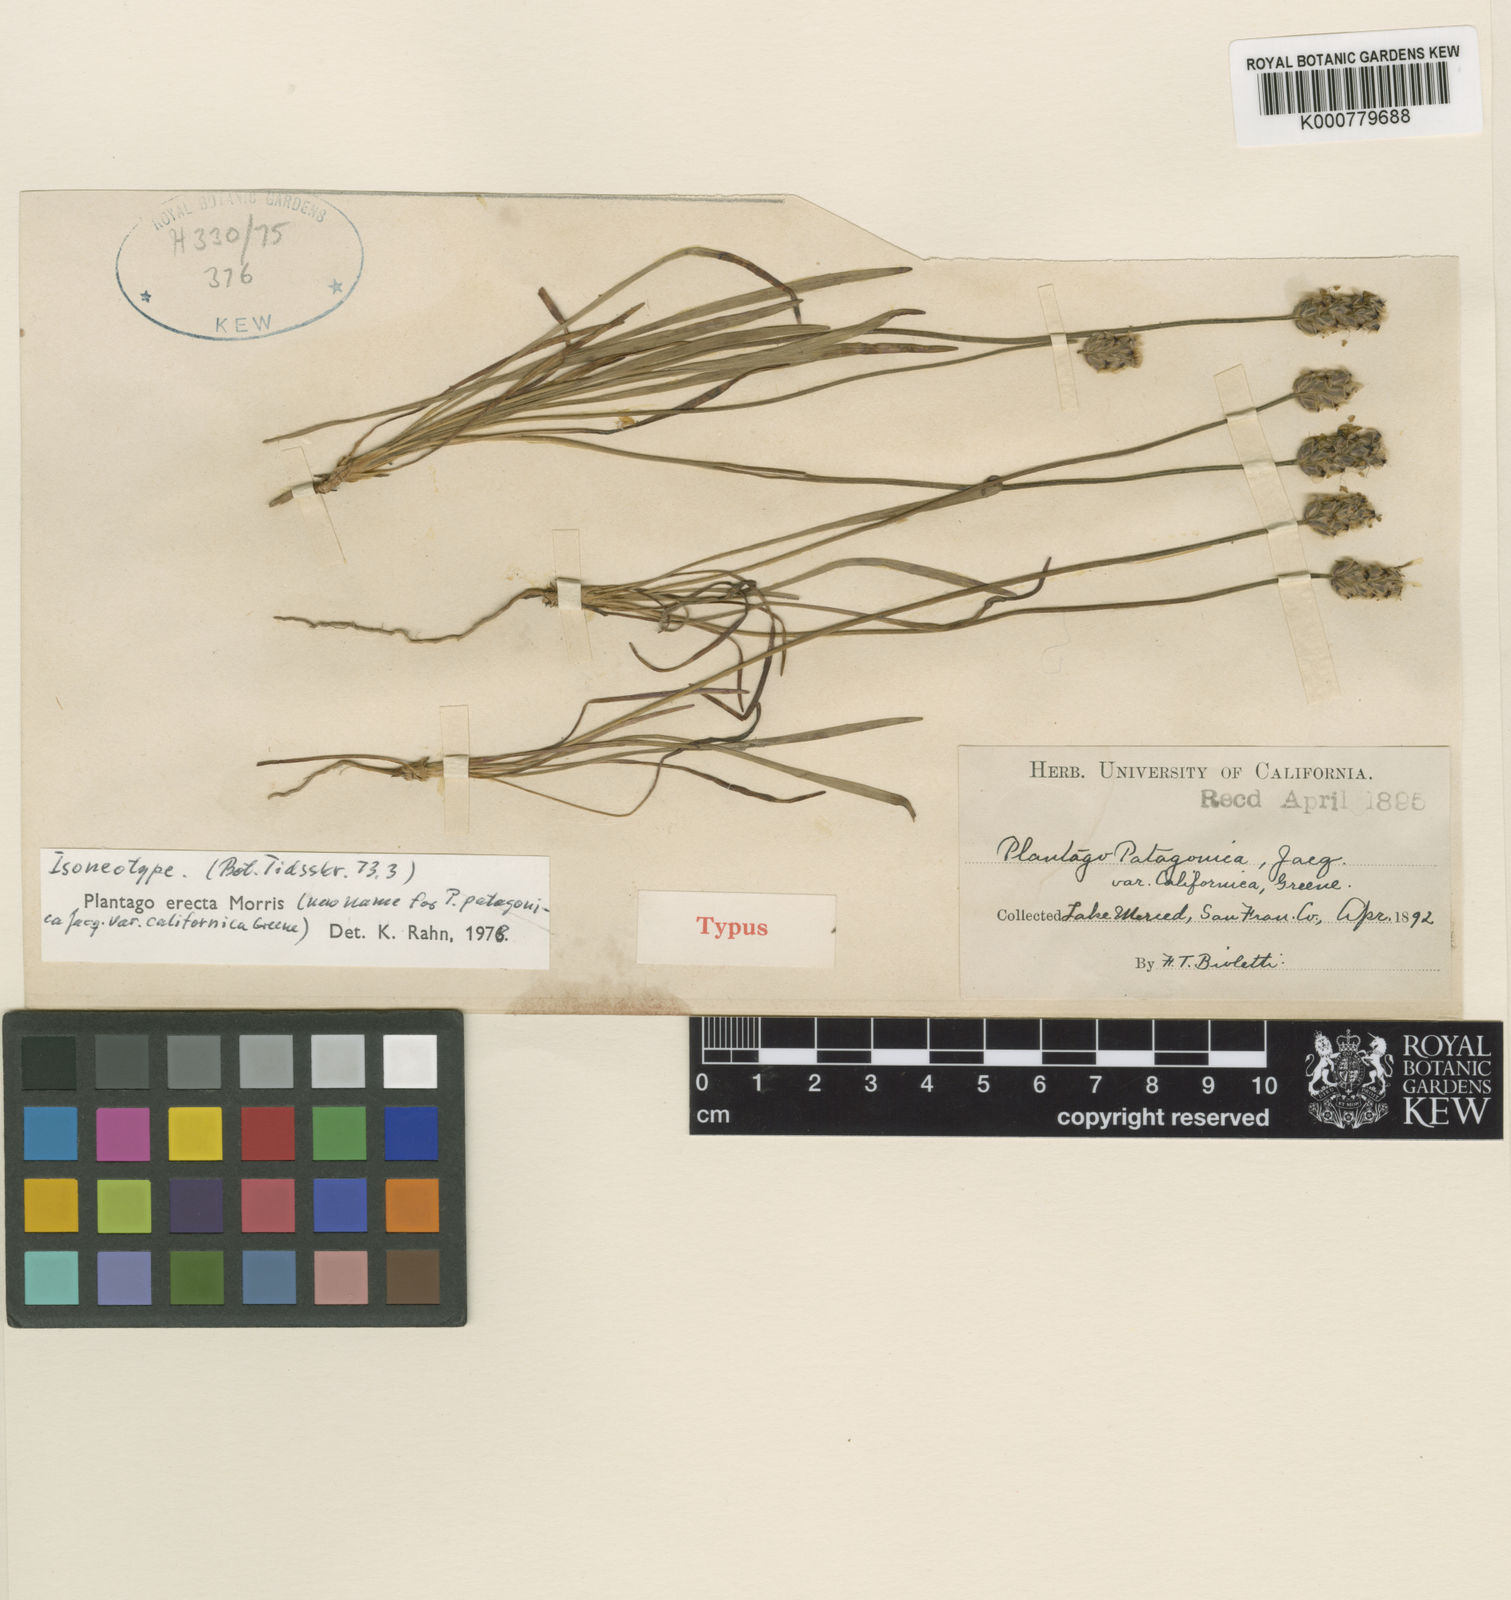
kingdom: Plantae
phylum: Tracheophyta
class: Magnoliopsida
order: Lamiales
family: Plantaginaceae
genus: Plantago
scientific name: Plantago erecta
